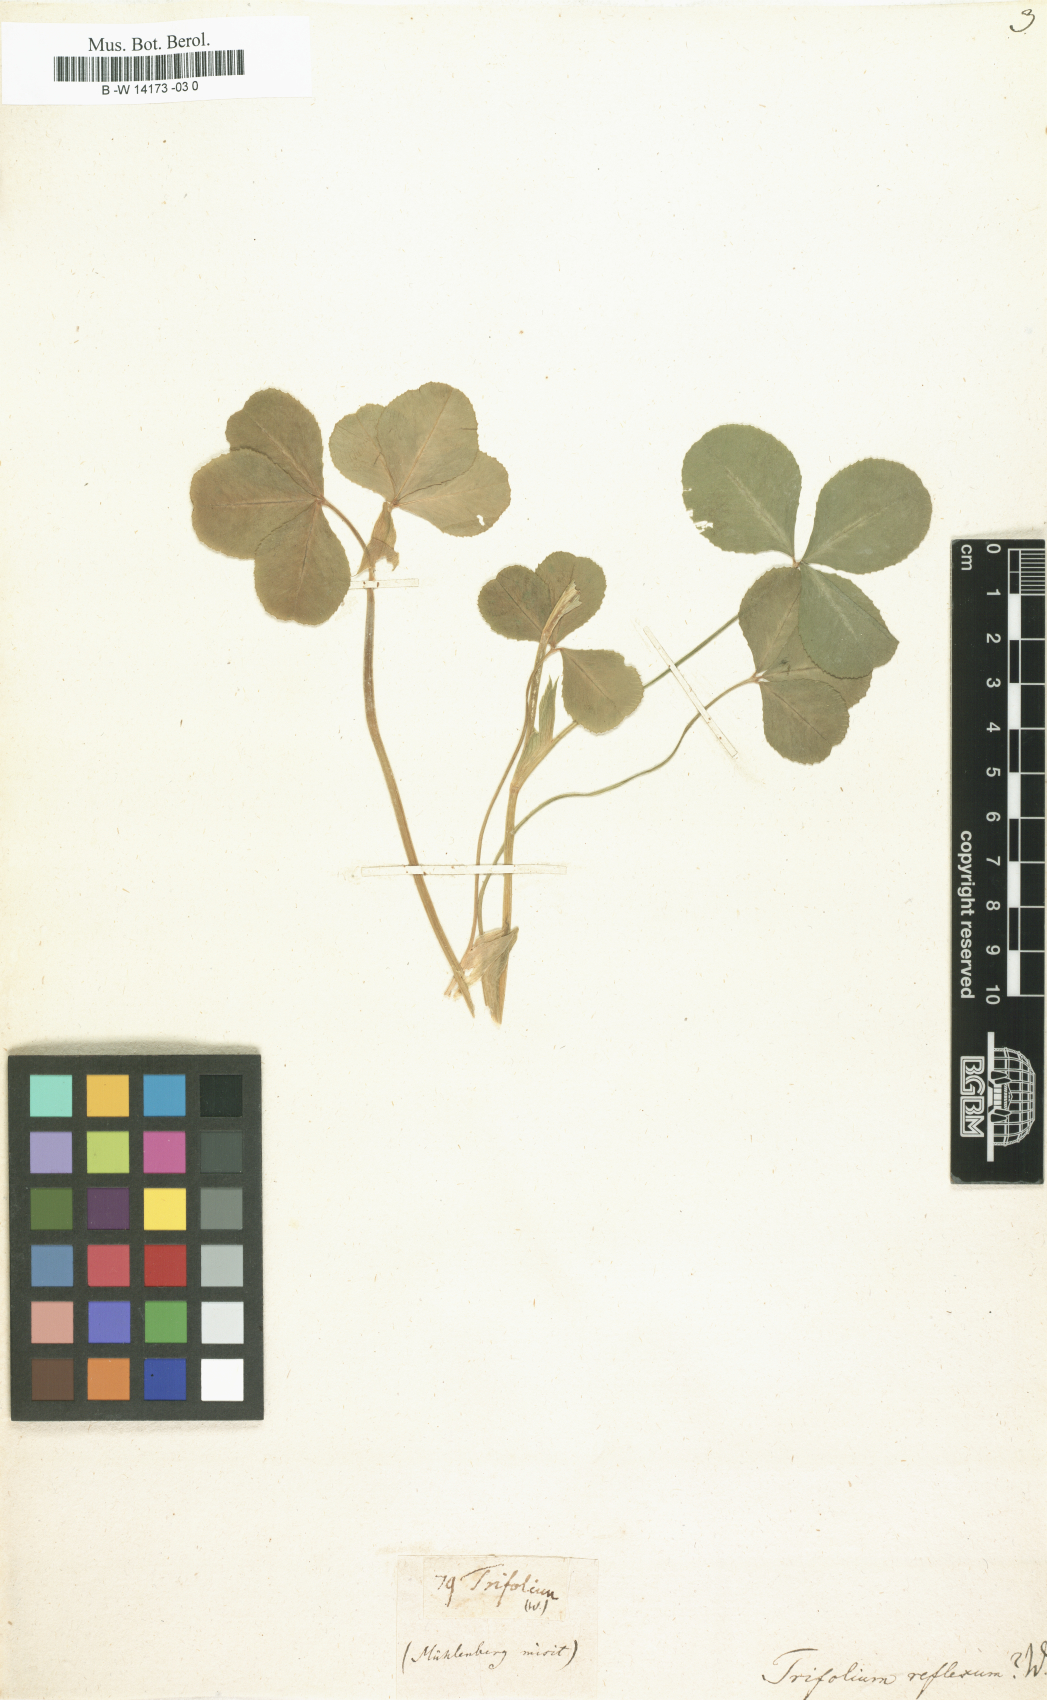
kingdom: Plantae
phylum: Tracheophyta
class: Magnoliopsida
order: Fabales
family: Fabaceae
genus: Trifolium
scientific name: Trifolium reflexum
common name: Buffalo clover
